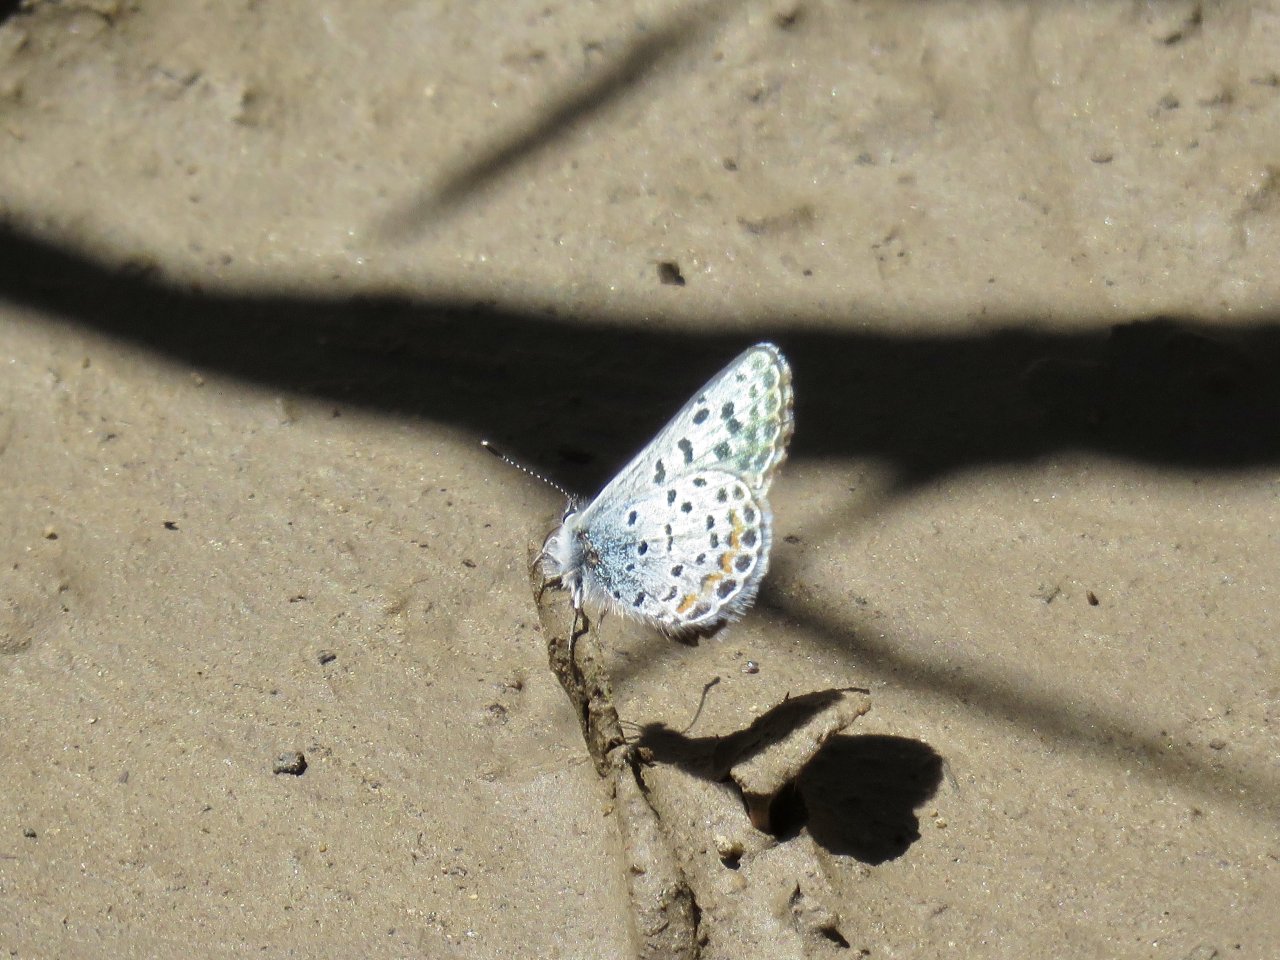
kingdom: Animalia
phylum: Arthropoda
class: Insecta
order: Lepidoptera
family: Lycaenidae
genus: Euphilotes
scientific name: Euphilotes enoptes
